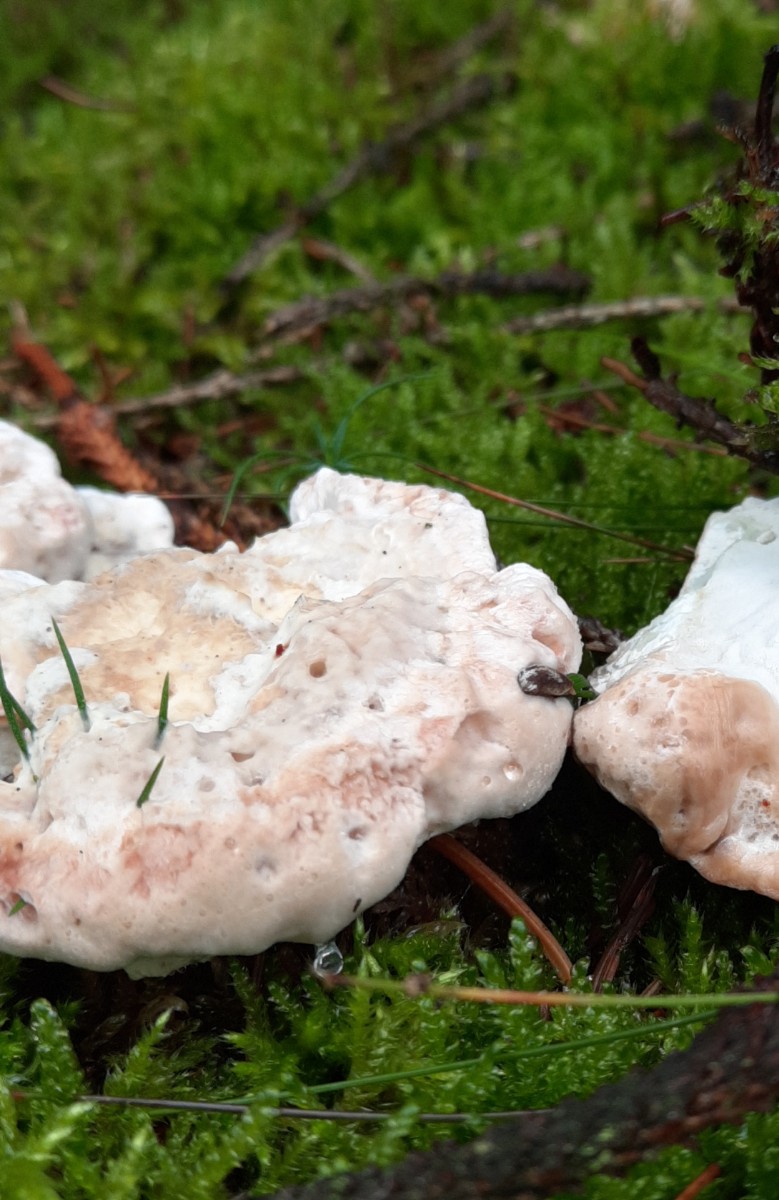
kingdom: Fungi
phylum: Basidiomycota
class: Agaricomycetes
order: Polyporales
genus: Calcipostia
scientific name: Calcipostia guttulata
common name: dråbe-kødporesvamp
